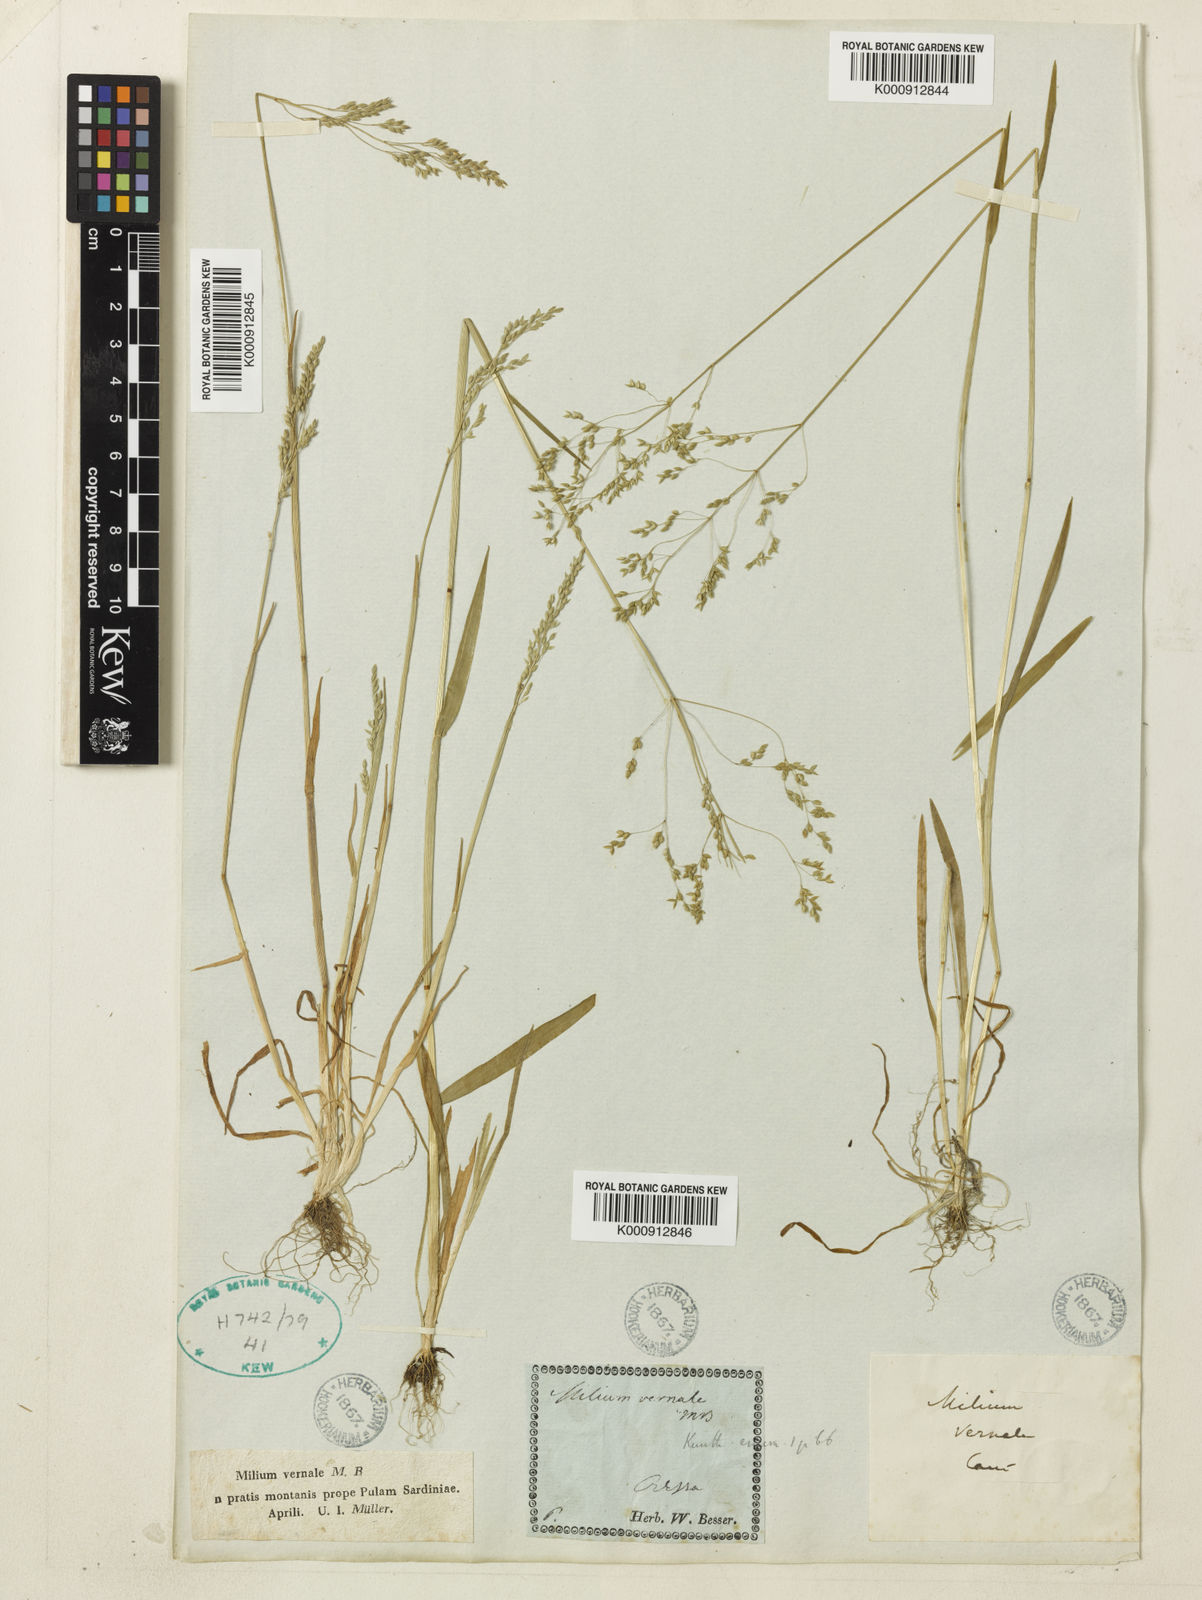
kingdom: Plantae
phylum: Tracheophyta
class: Liliopsida
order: Poales
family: Poaceae
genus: Milium
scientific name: Milium vernale
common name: Early millet
